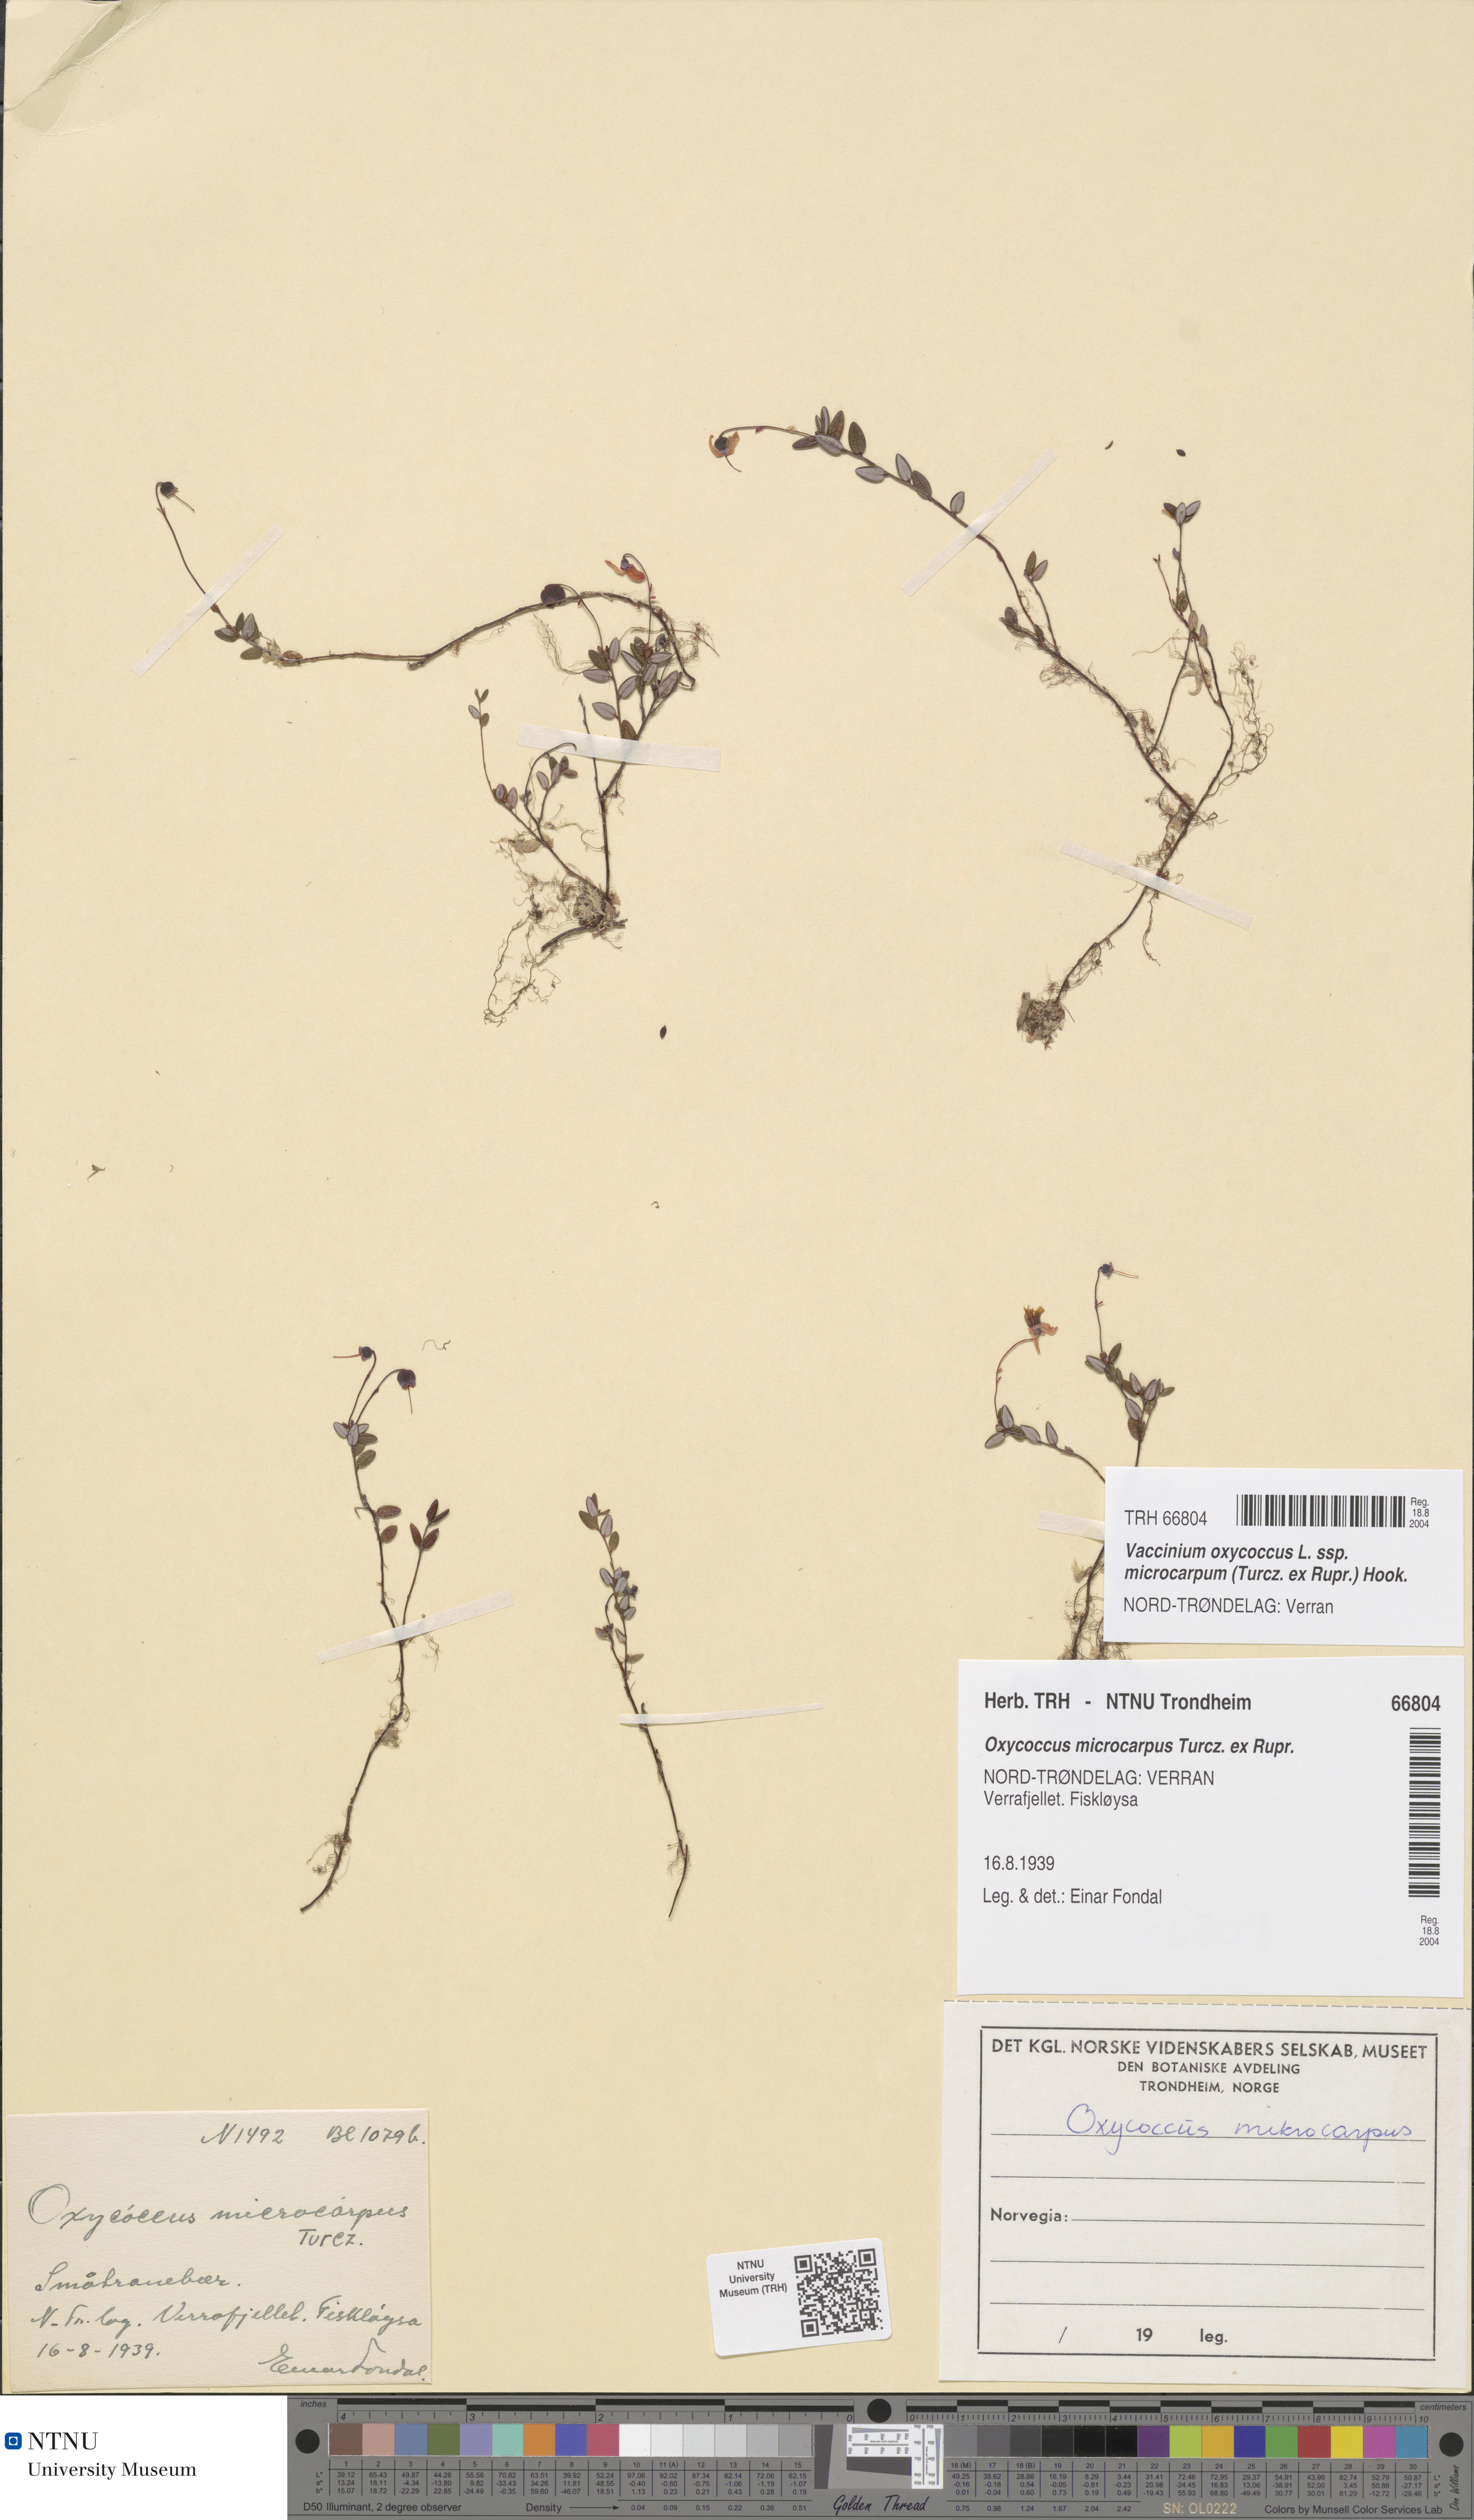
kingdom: Plantae
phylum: Tracheophyta
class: Magnoliopsida
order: Ericales
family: Ericaceae
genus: Vaccinium
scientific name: Vaccinium microcarpum
